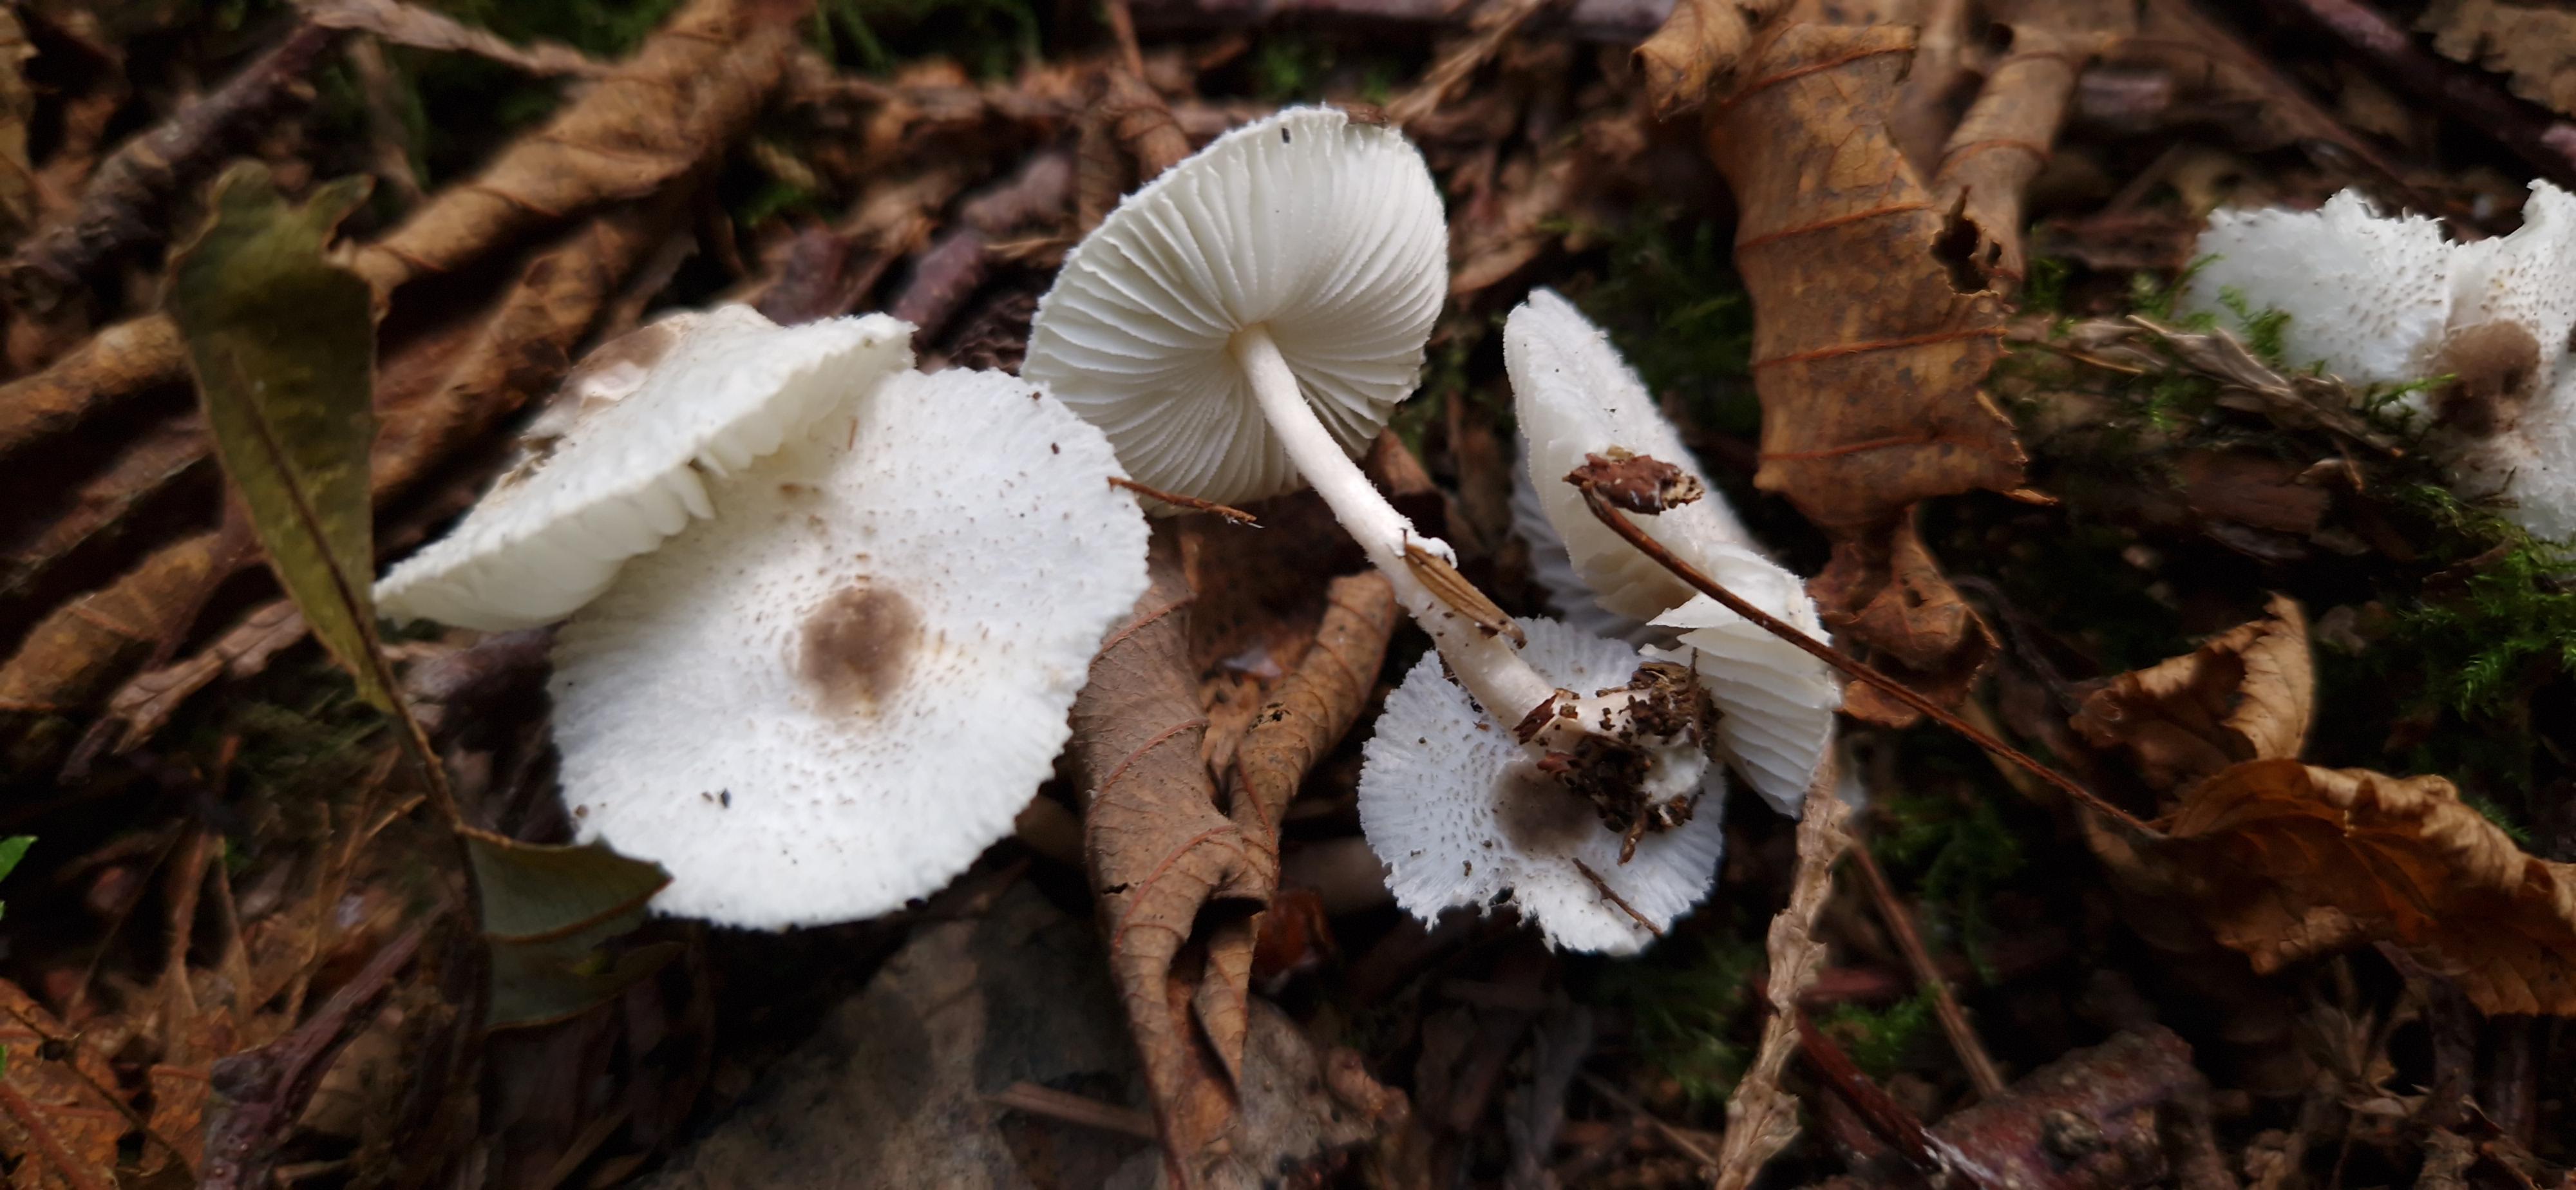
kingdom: Fungi
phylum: Basidiomycota
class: Agaricomycetes
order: Agaricales
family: Agaricaceae
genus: Leucocoprinus
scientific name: Leucocoprinus brebissonii
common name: gråsort silkehat
